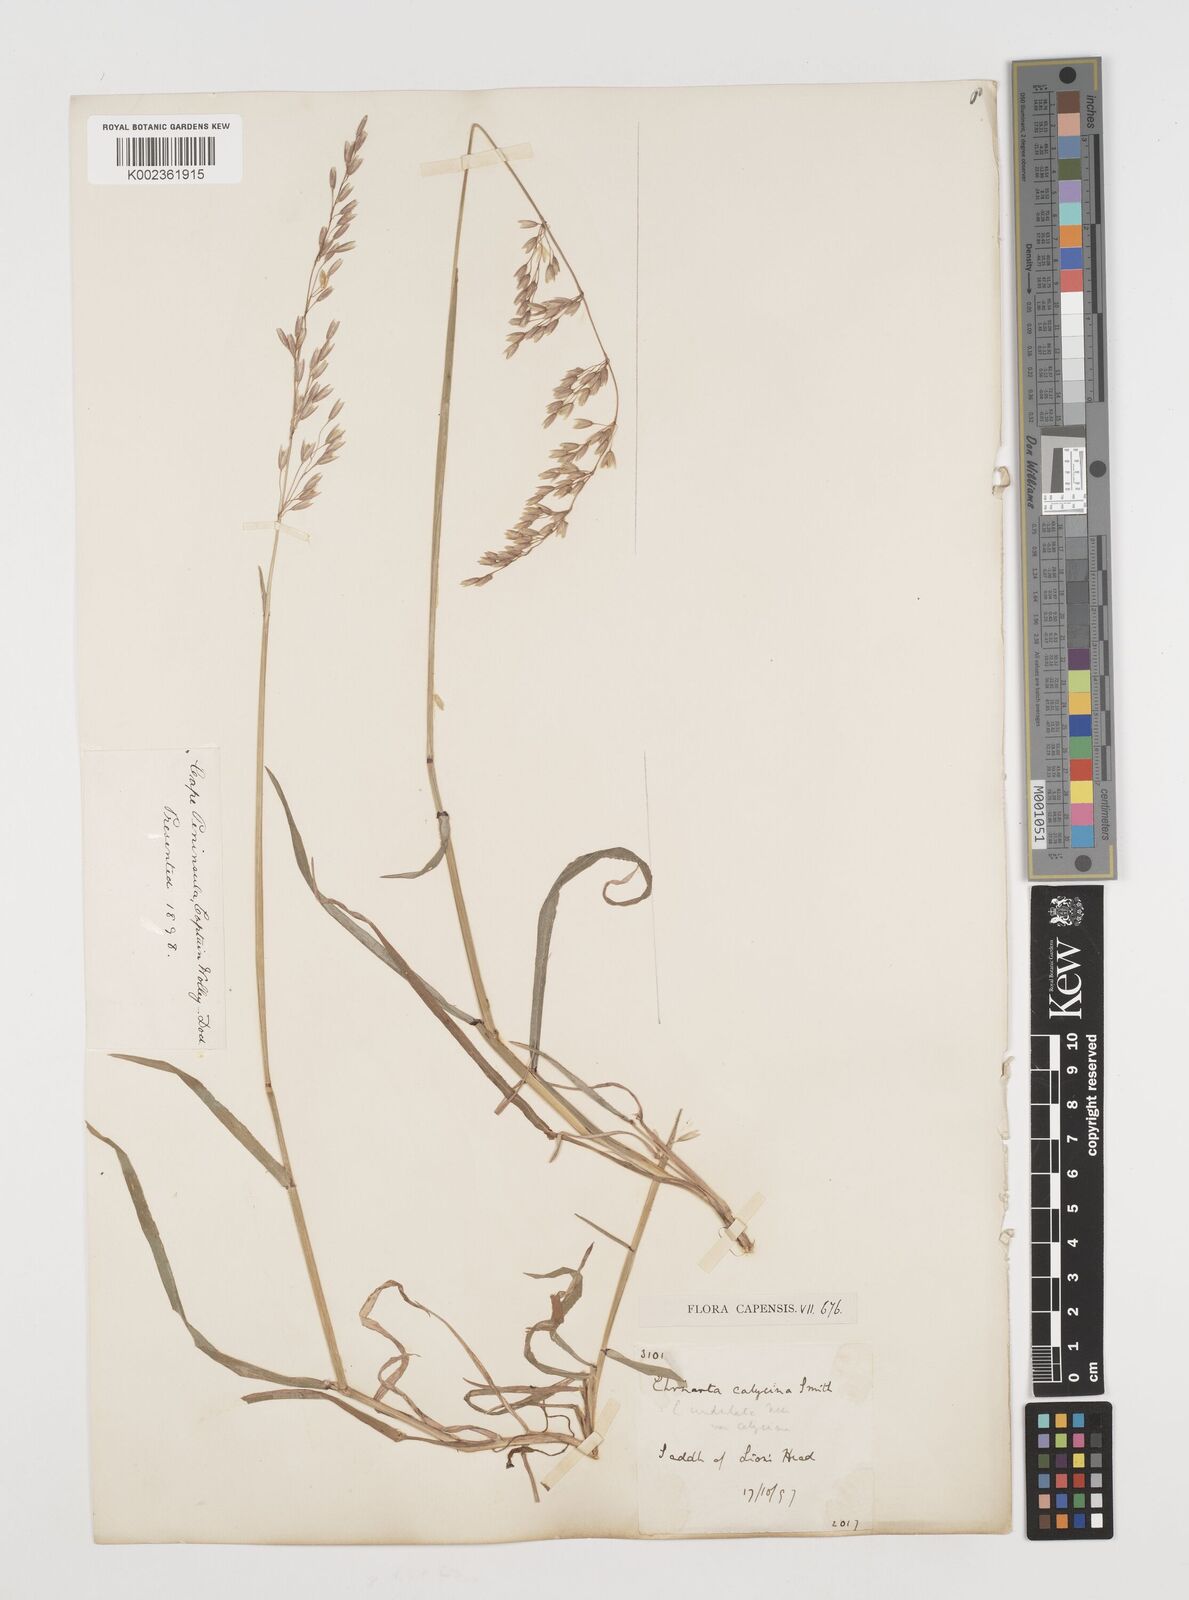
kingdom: Plantae
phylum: Tracheophyta
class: Liliopsida
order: Poales
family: Poaceae
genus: Ehrharta
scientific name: Ehrharta calycina
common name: Perennial veldtgrass
